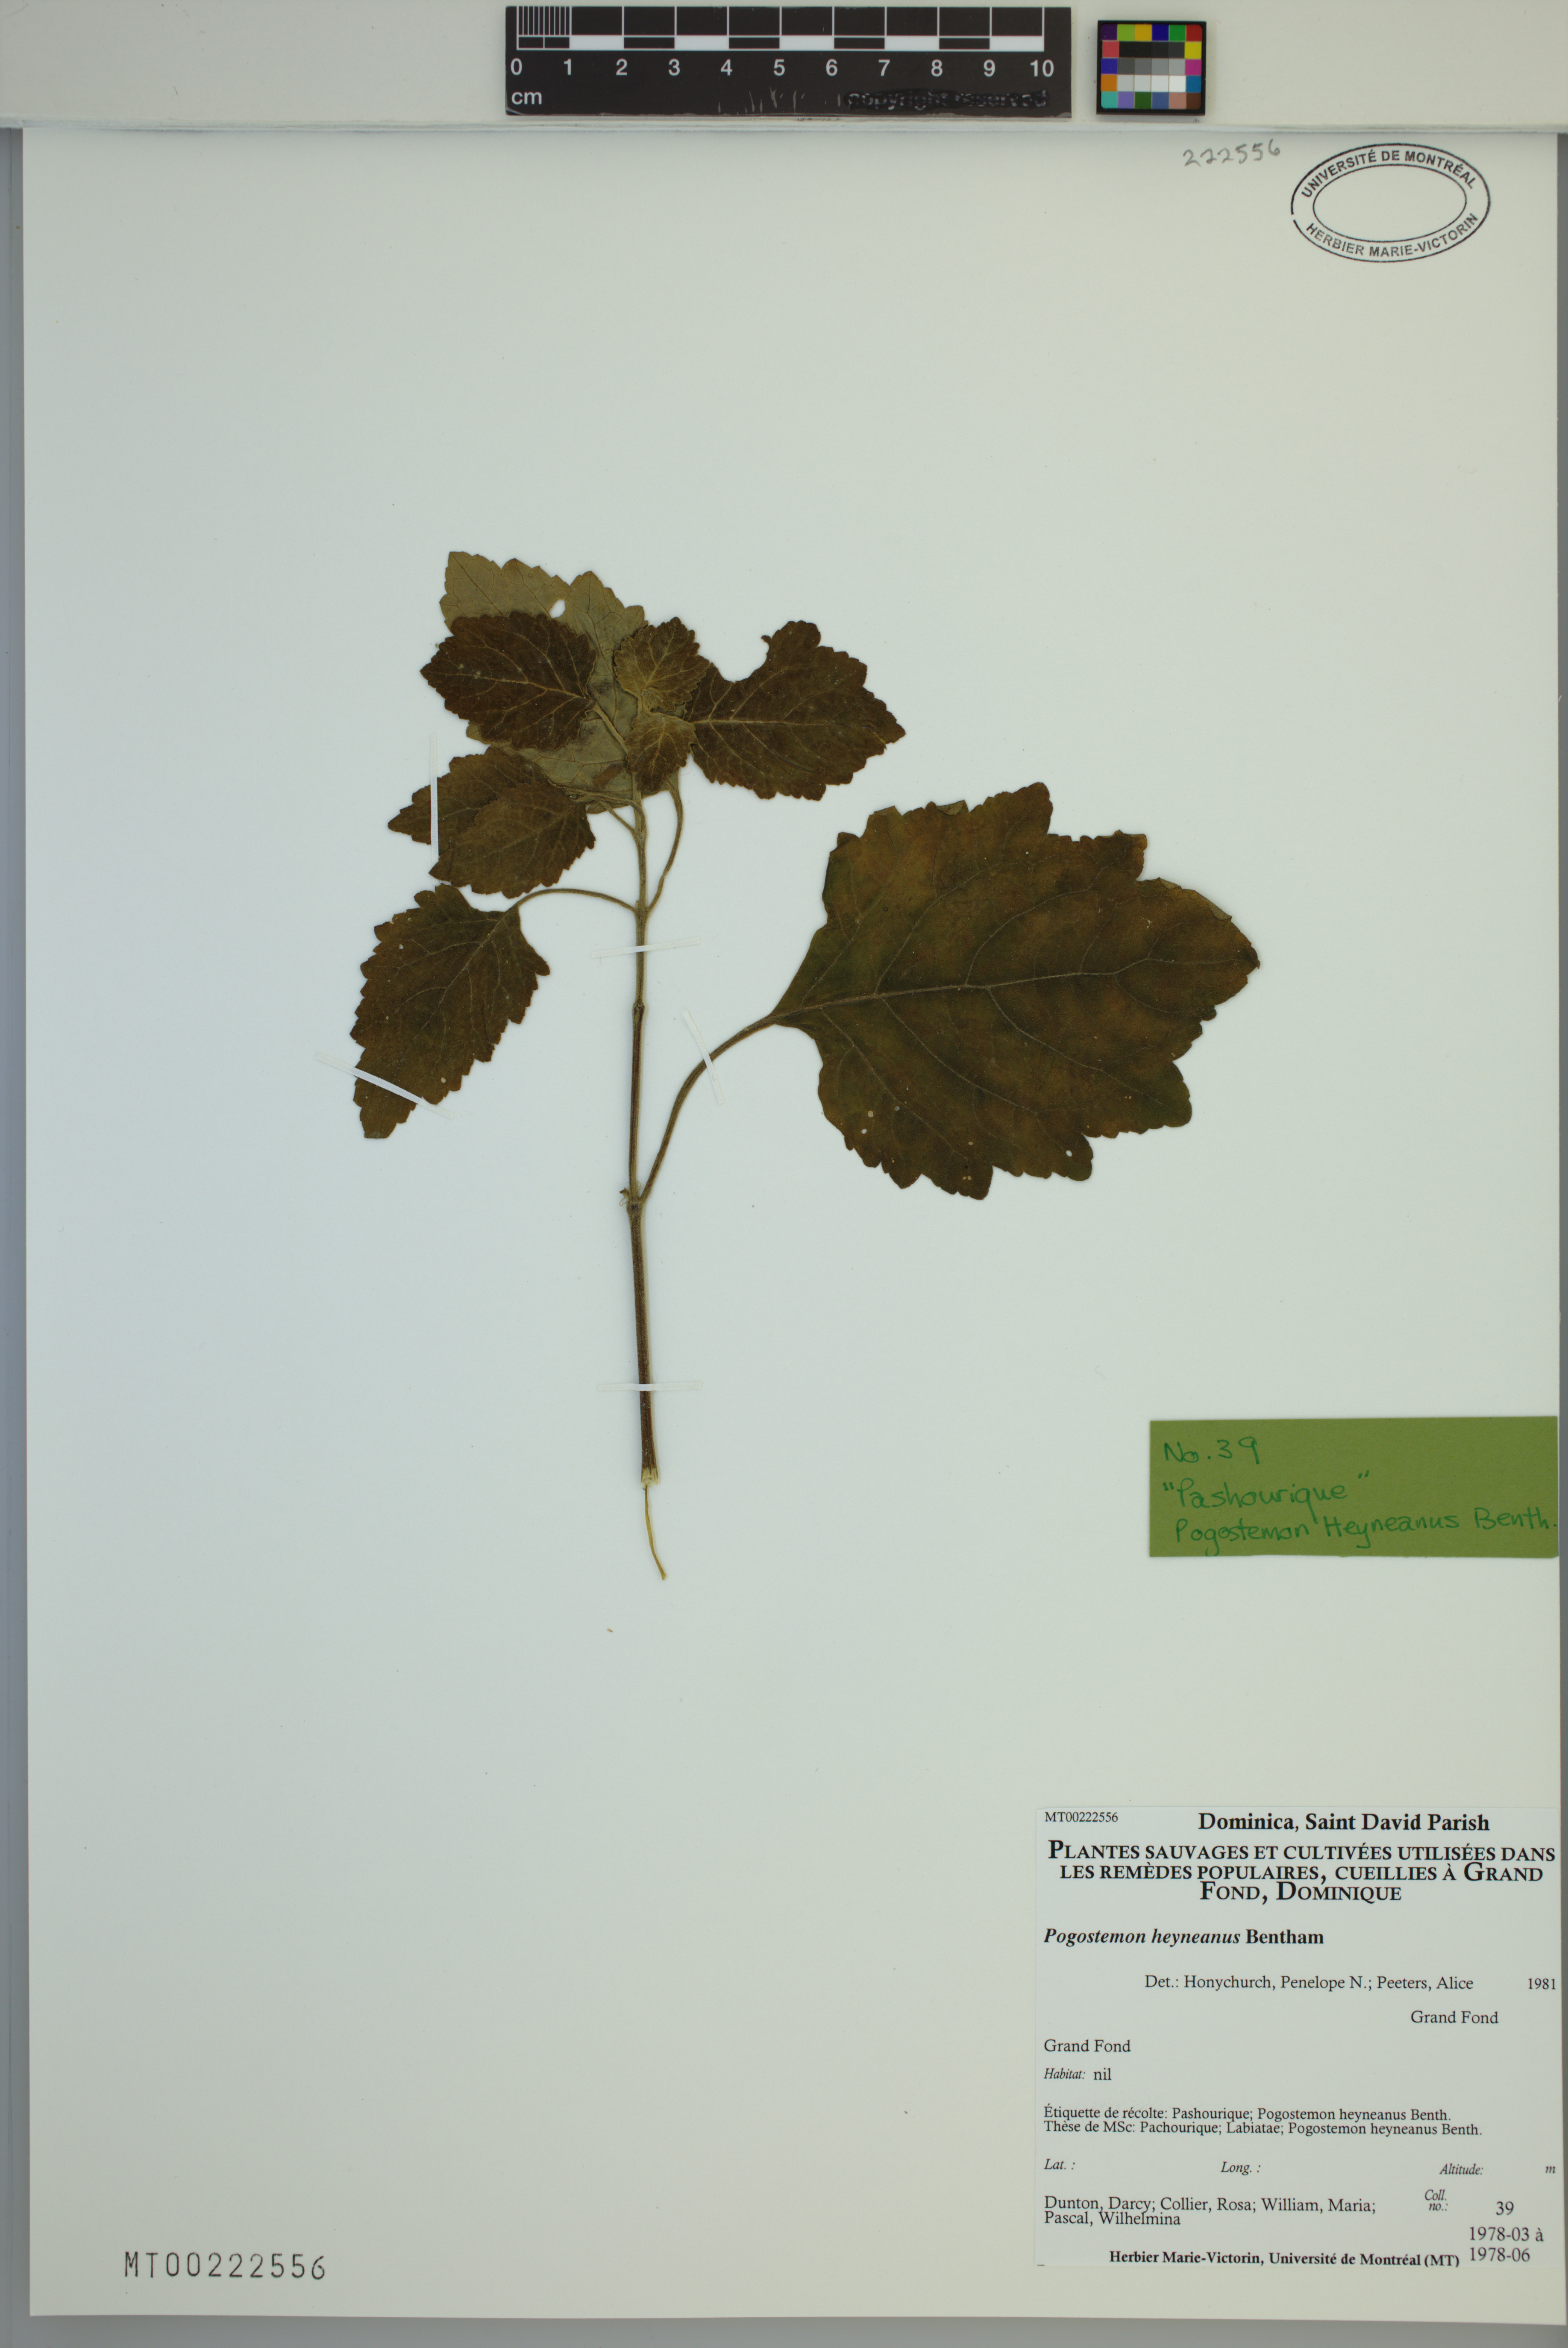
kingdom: Plantae
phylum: Tracheophyta
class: Magnoliopsida
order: Lamiales
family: Lamiaceae
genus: Pogostemon
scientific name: Pogostemon heyneanus
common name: Indian patchouli
